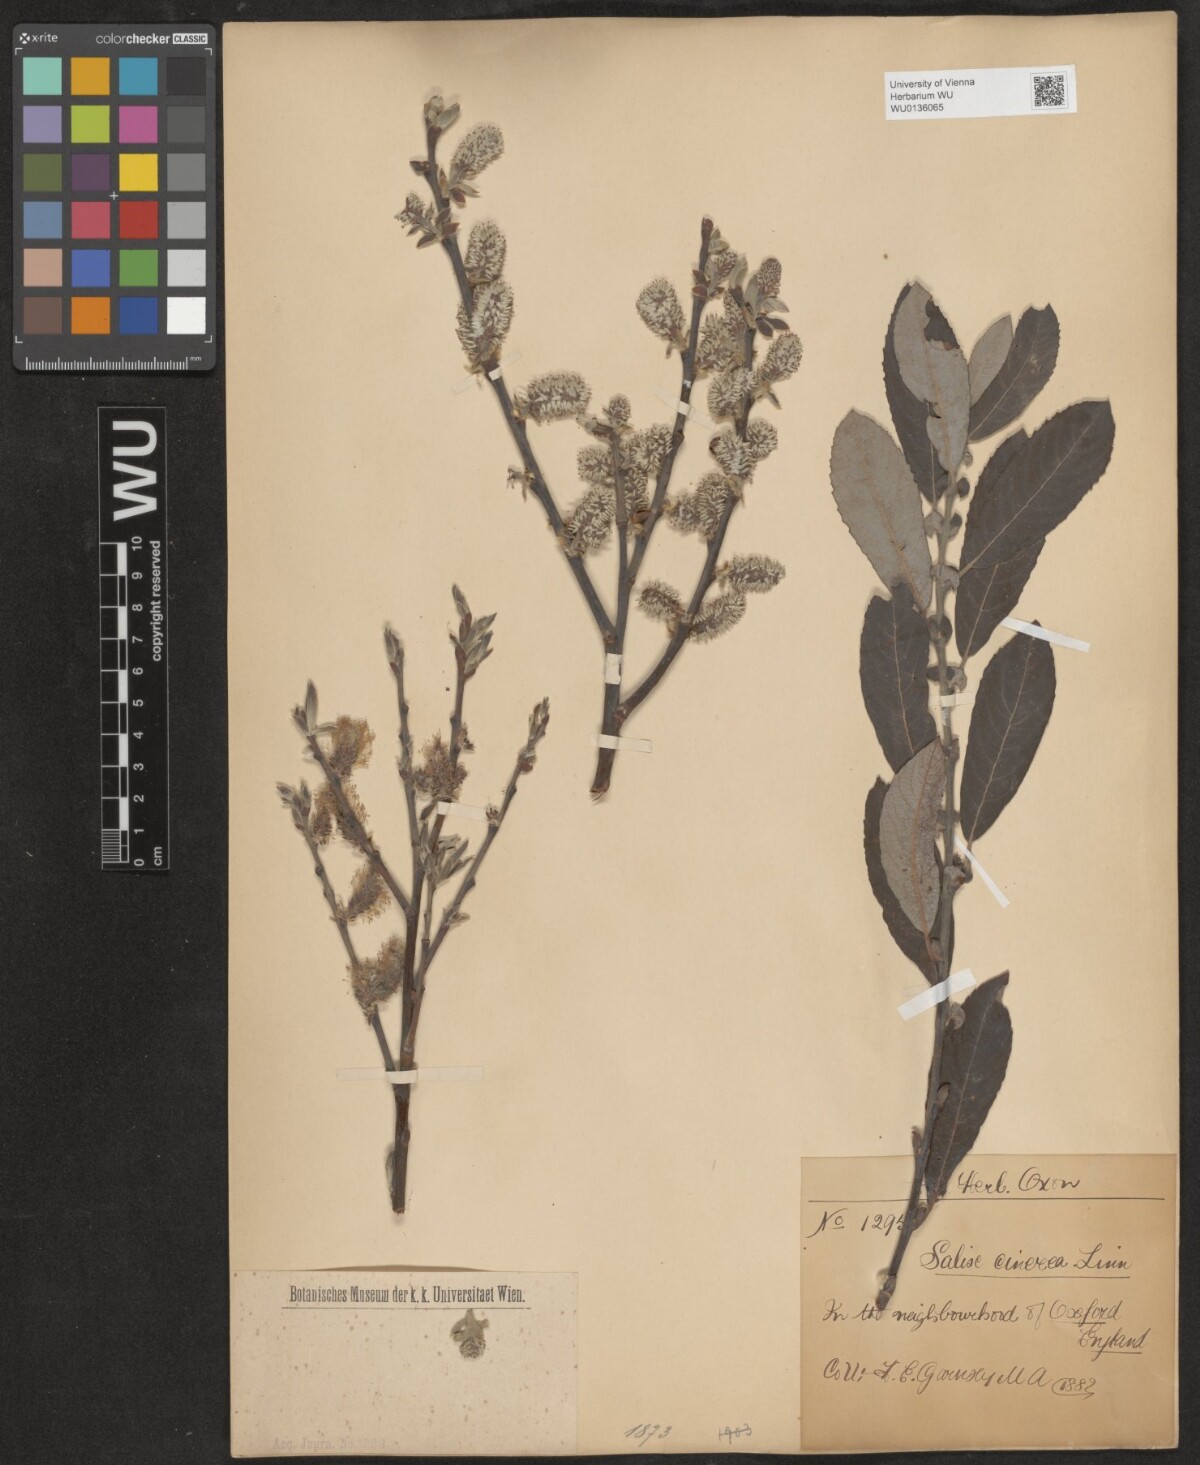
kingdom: Plantae
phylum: Tracheophyta
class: Magnoliopsida
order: Malpighiales
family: Salicaceae
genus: Salix
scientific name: Salix cinerea
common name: Common sallow
